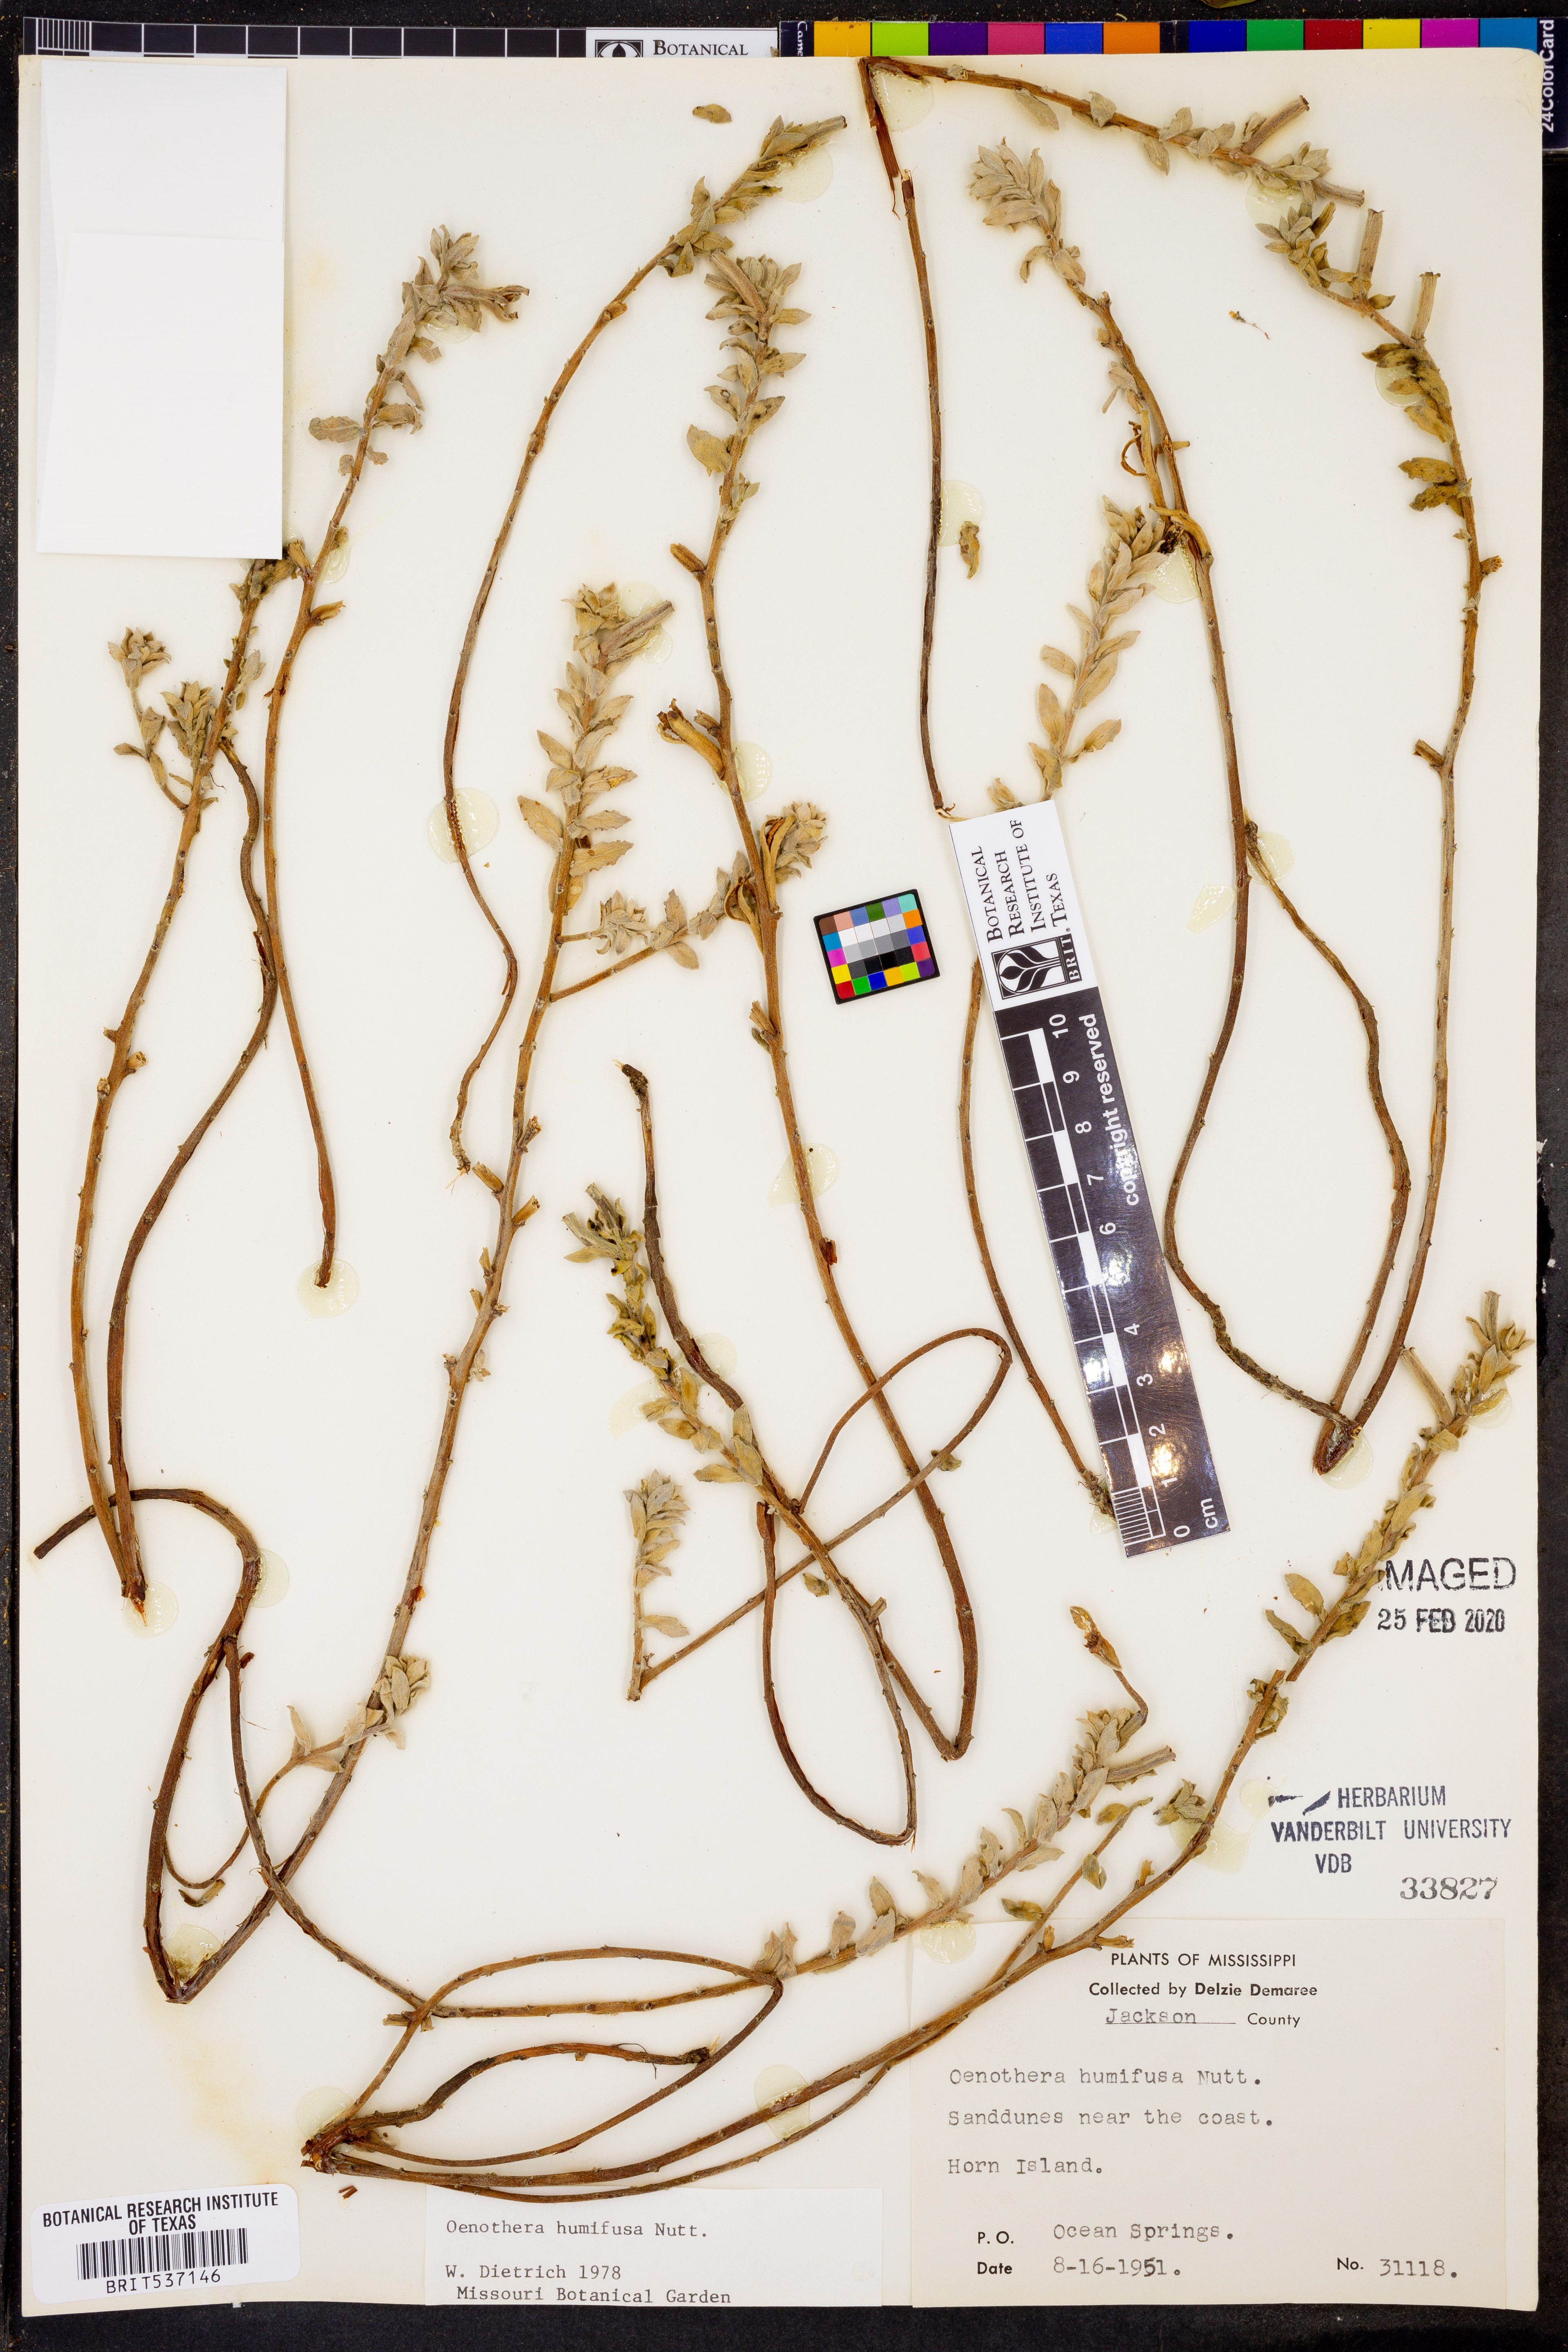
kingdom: Plantae
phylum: Tracheophyta
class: Magnoliopsida
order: Myrtales
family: Onagraceae
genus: Oenothera
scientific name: Oenothera humifusa
